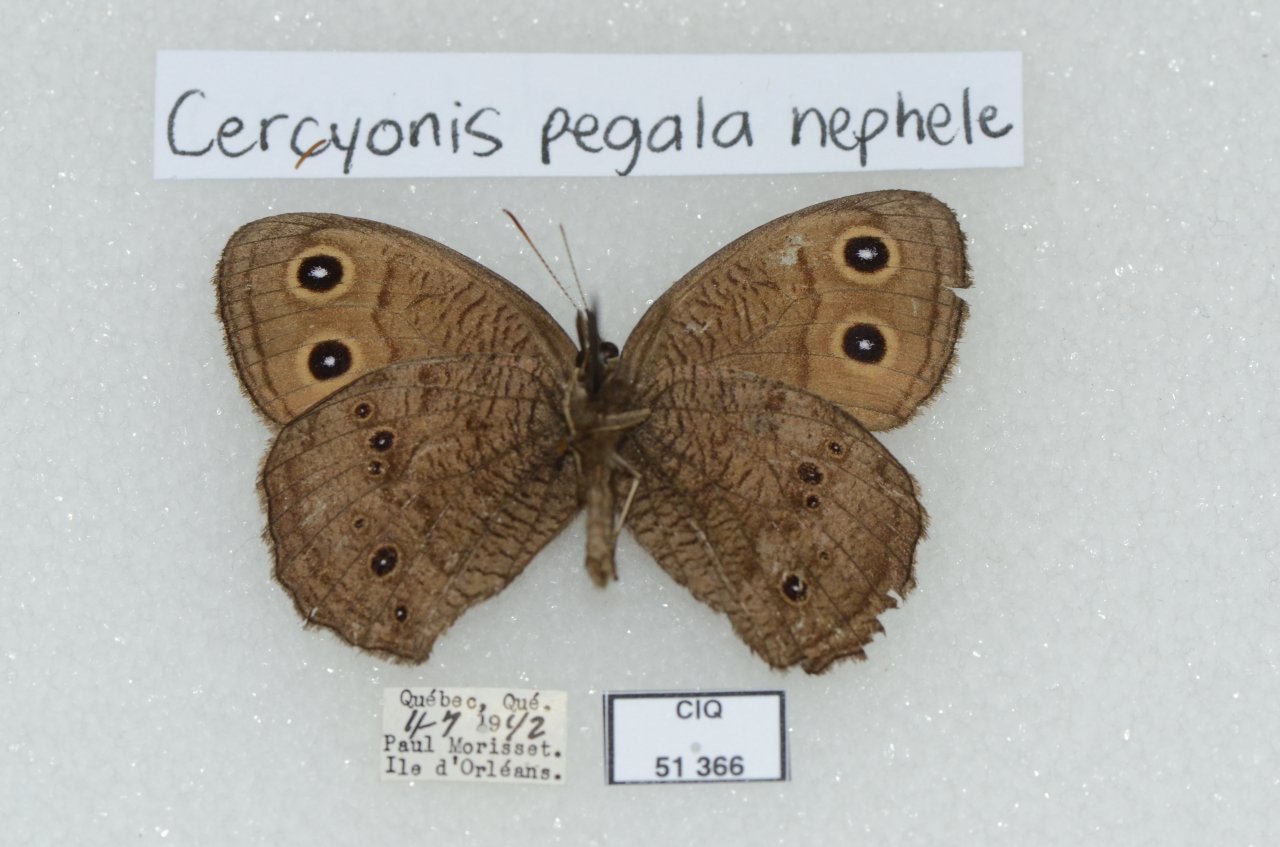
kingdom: Animalia
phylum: Arthropoda
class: Insecta
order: Lepidoptera
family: Nymphalidae
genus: Cercyonis
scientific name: Cercyonis pegala
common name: Common Wood-Nymph
